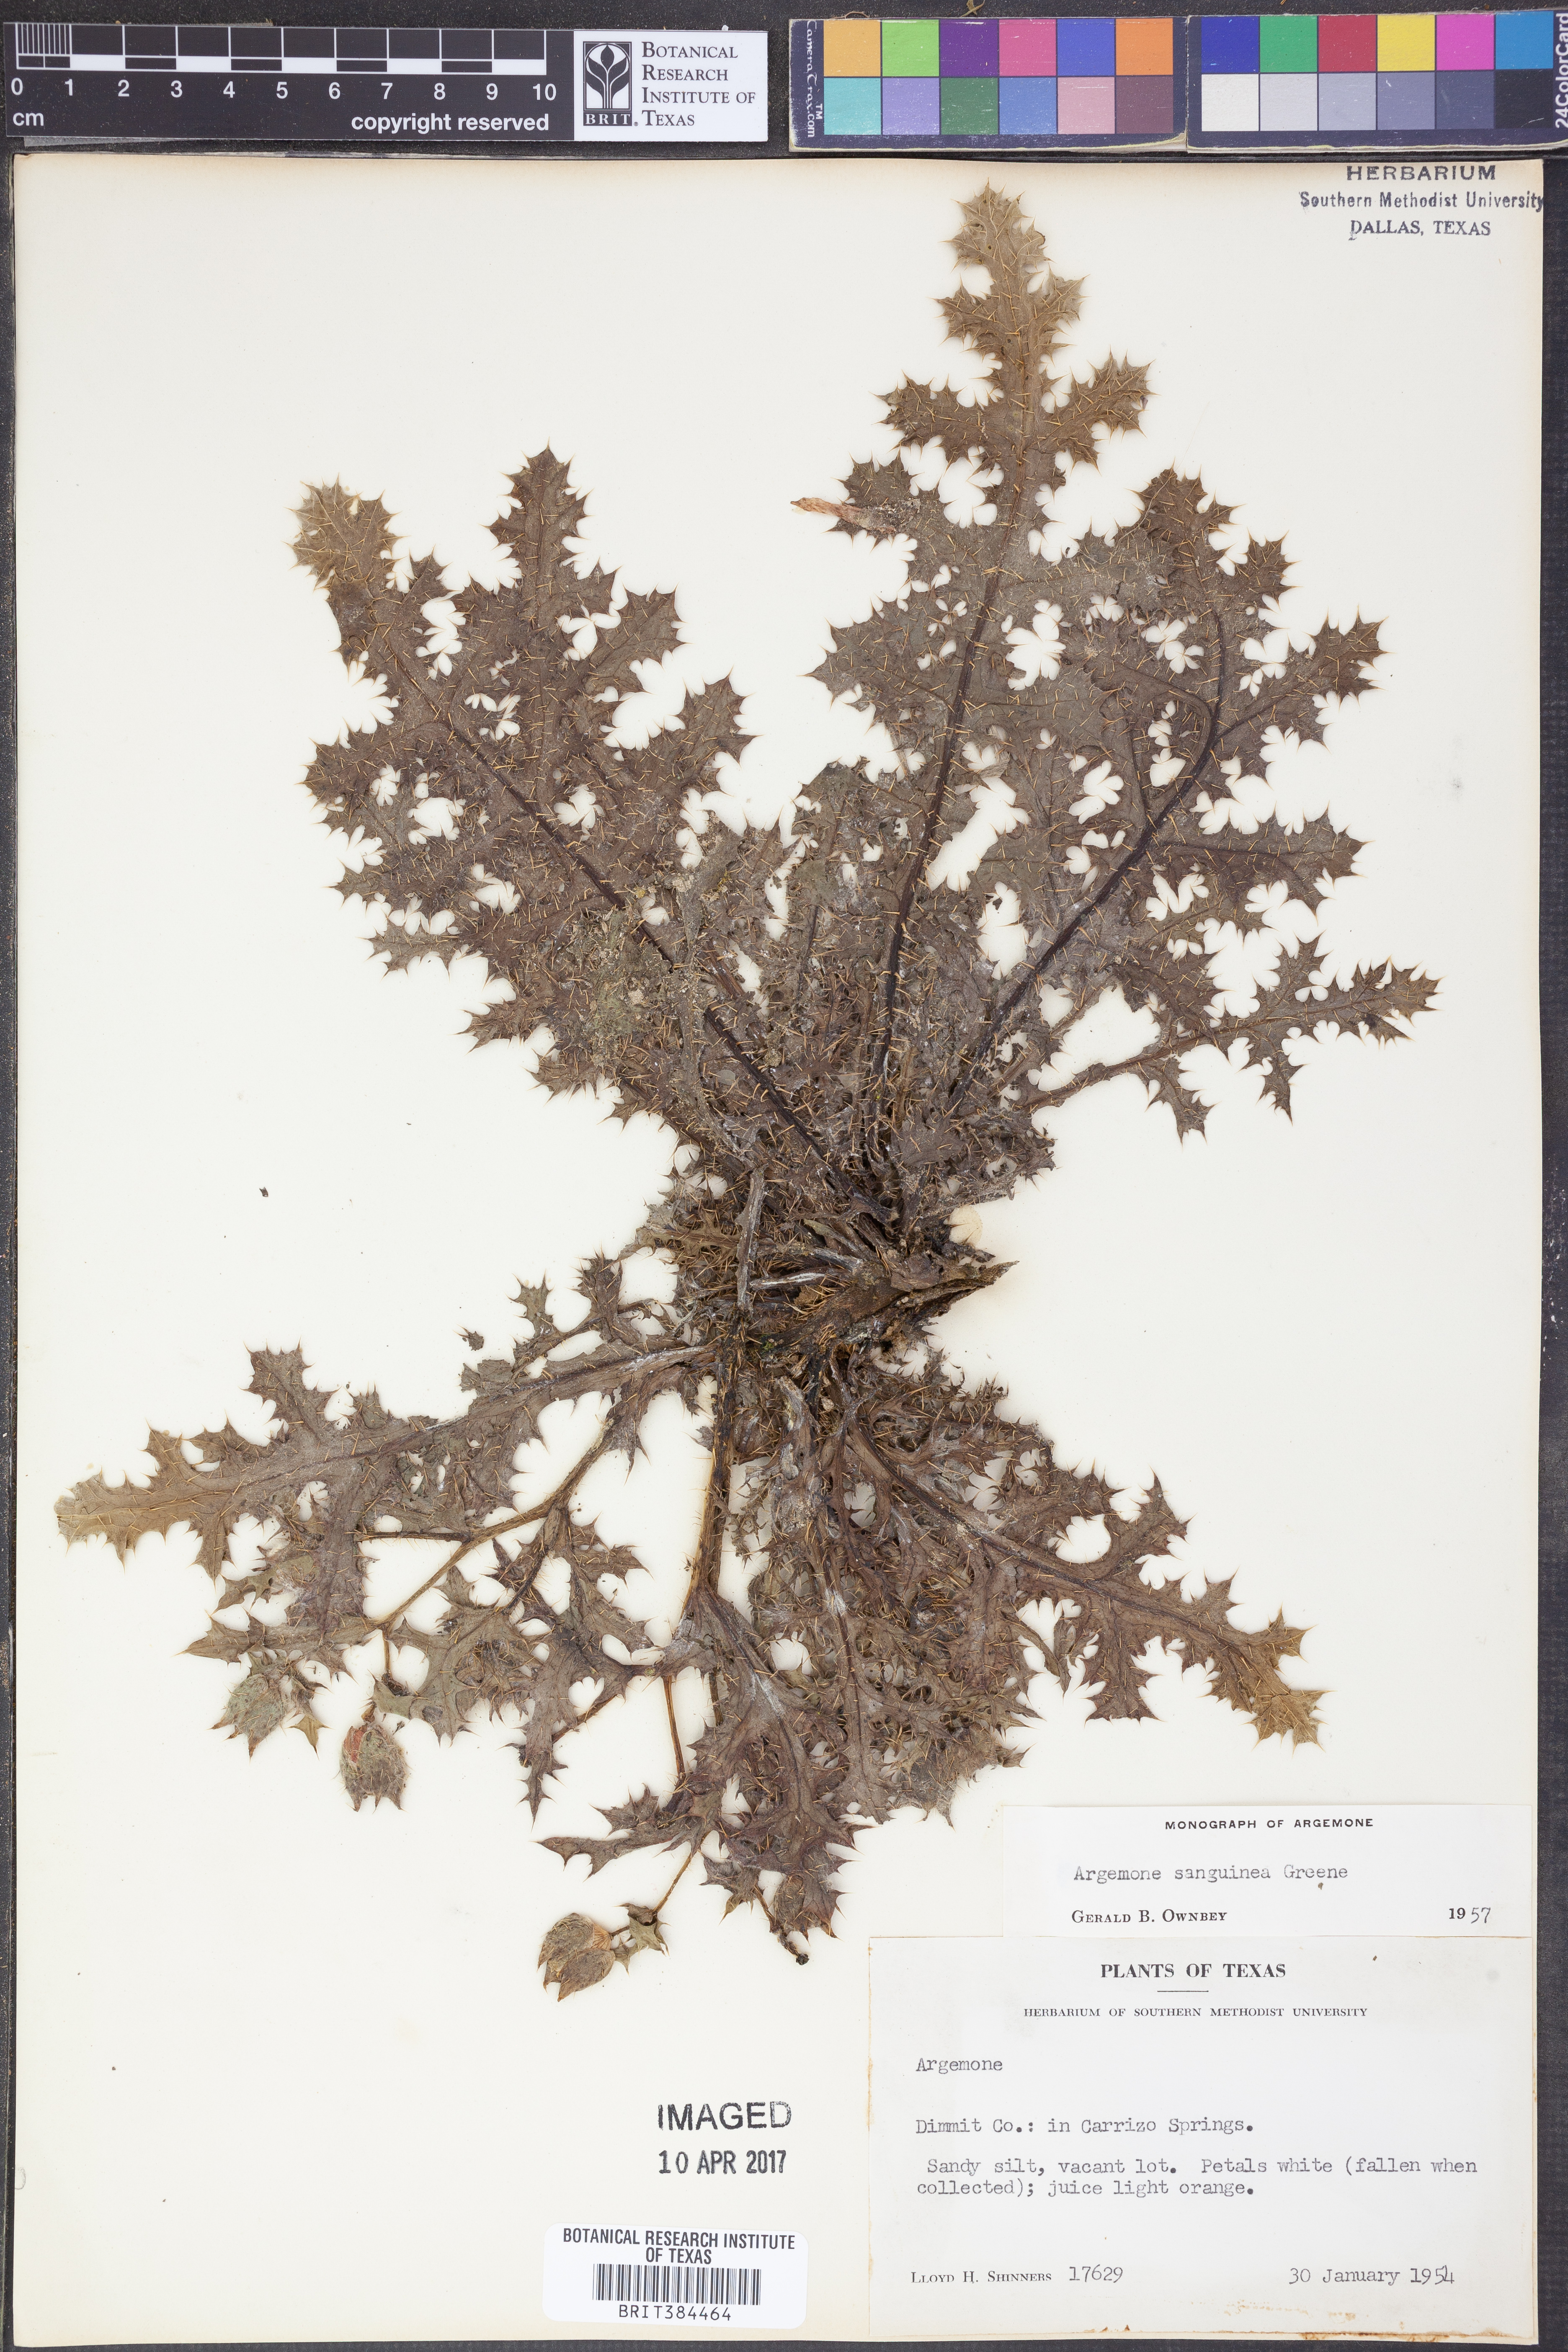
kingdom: Plantae
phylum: Tracheophyta
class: Magnoliopsida
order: Ranunculales
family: Papaveraceae
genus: Argemone
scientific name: Argemone sanguinea
